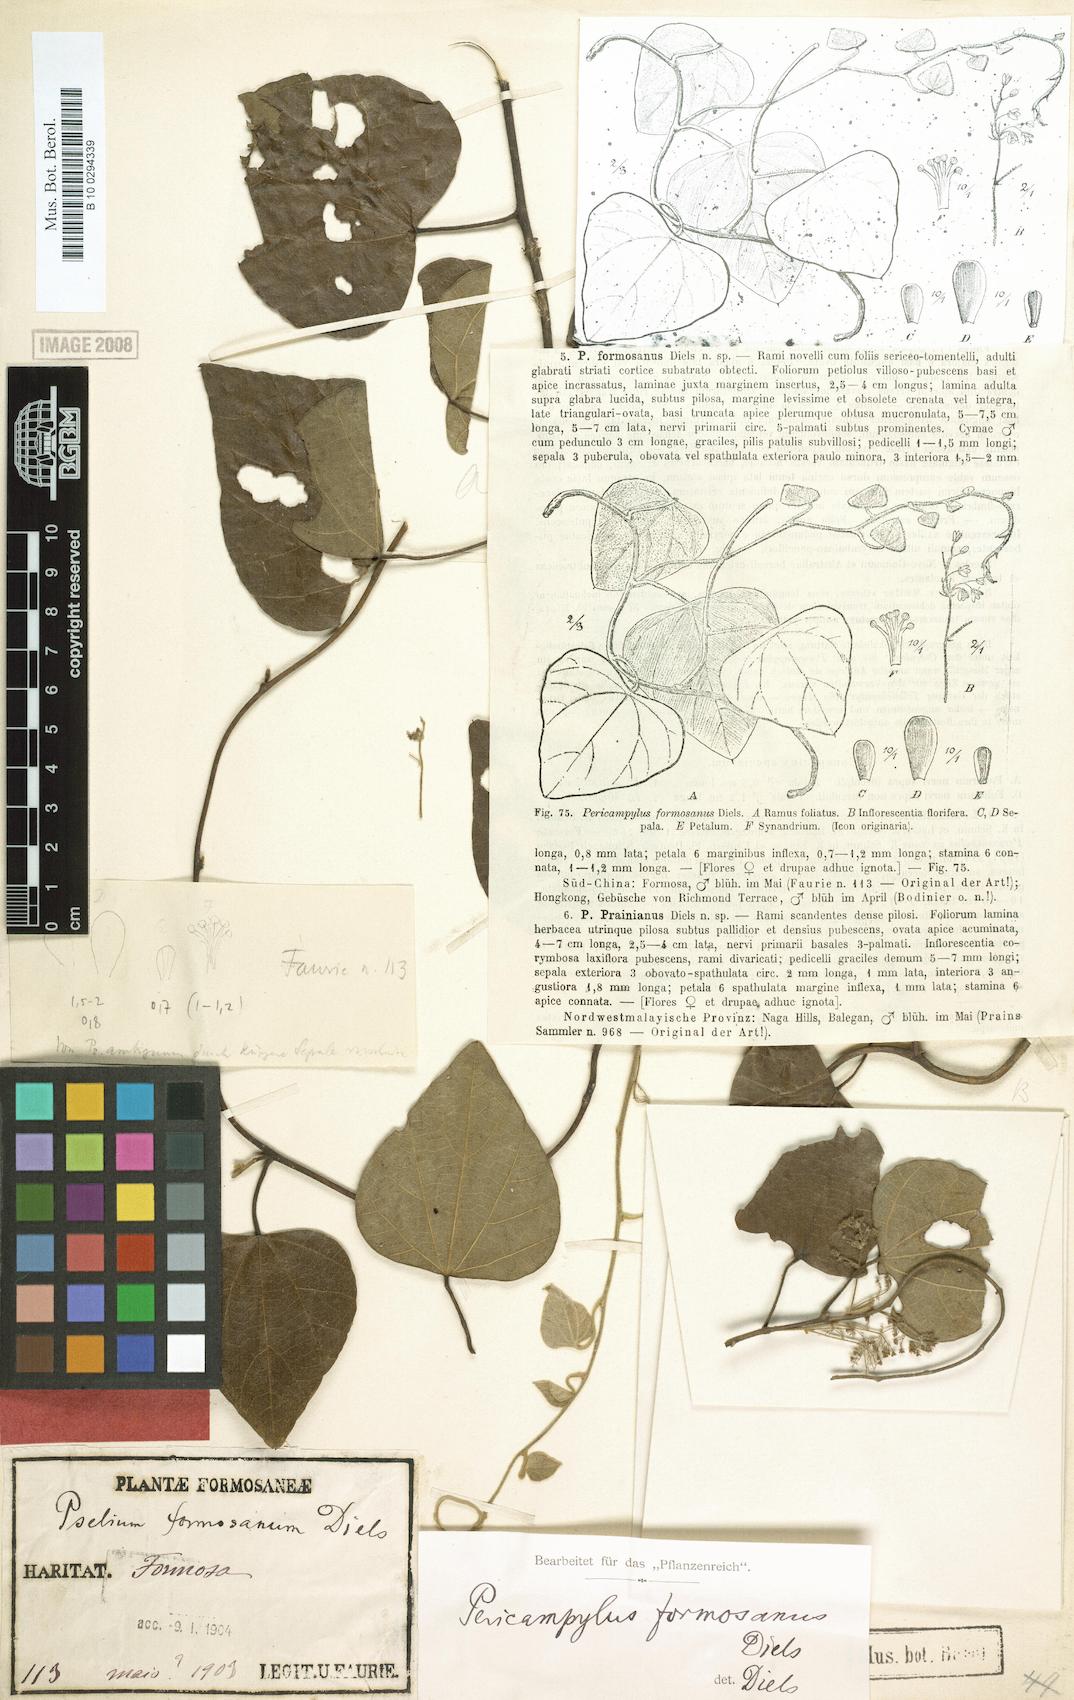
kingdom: Plantae
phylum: Tracheophyta
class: Magnoliopsida
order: Ranunculales
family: Menispermaceae
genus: Pericampylus
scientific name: Pericampylus glaucus
